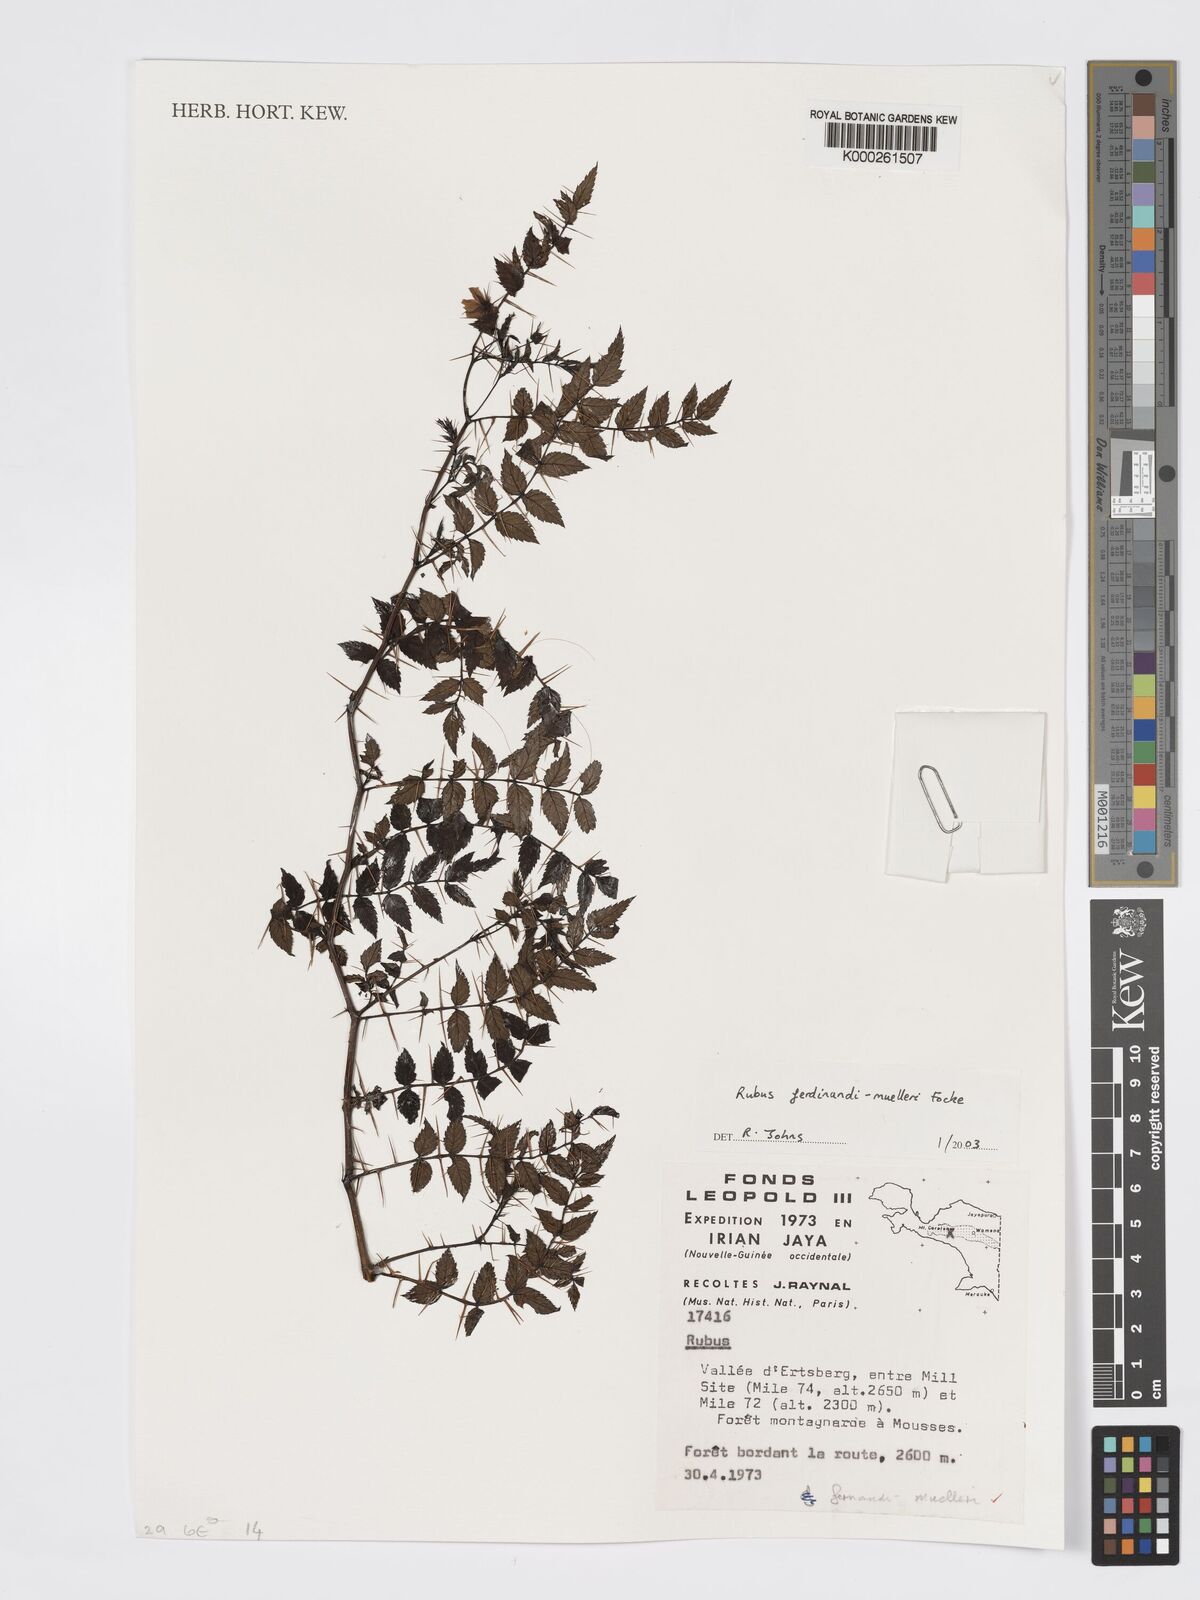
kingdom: Plantae
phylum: Tracheophyta
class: Magnoliopsida
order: Rosales
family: Rosaceae
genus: Rubus
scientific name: Rubus ferdinandimuelleri
